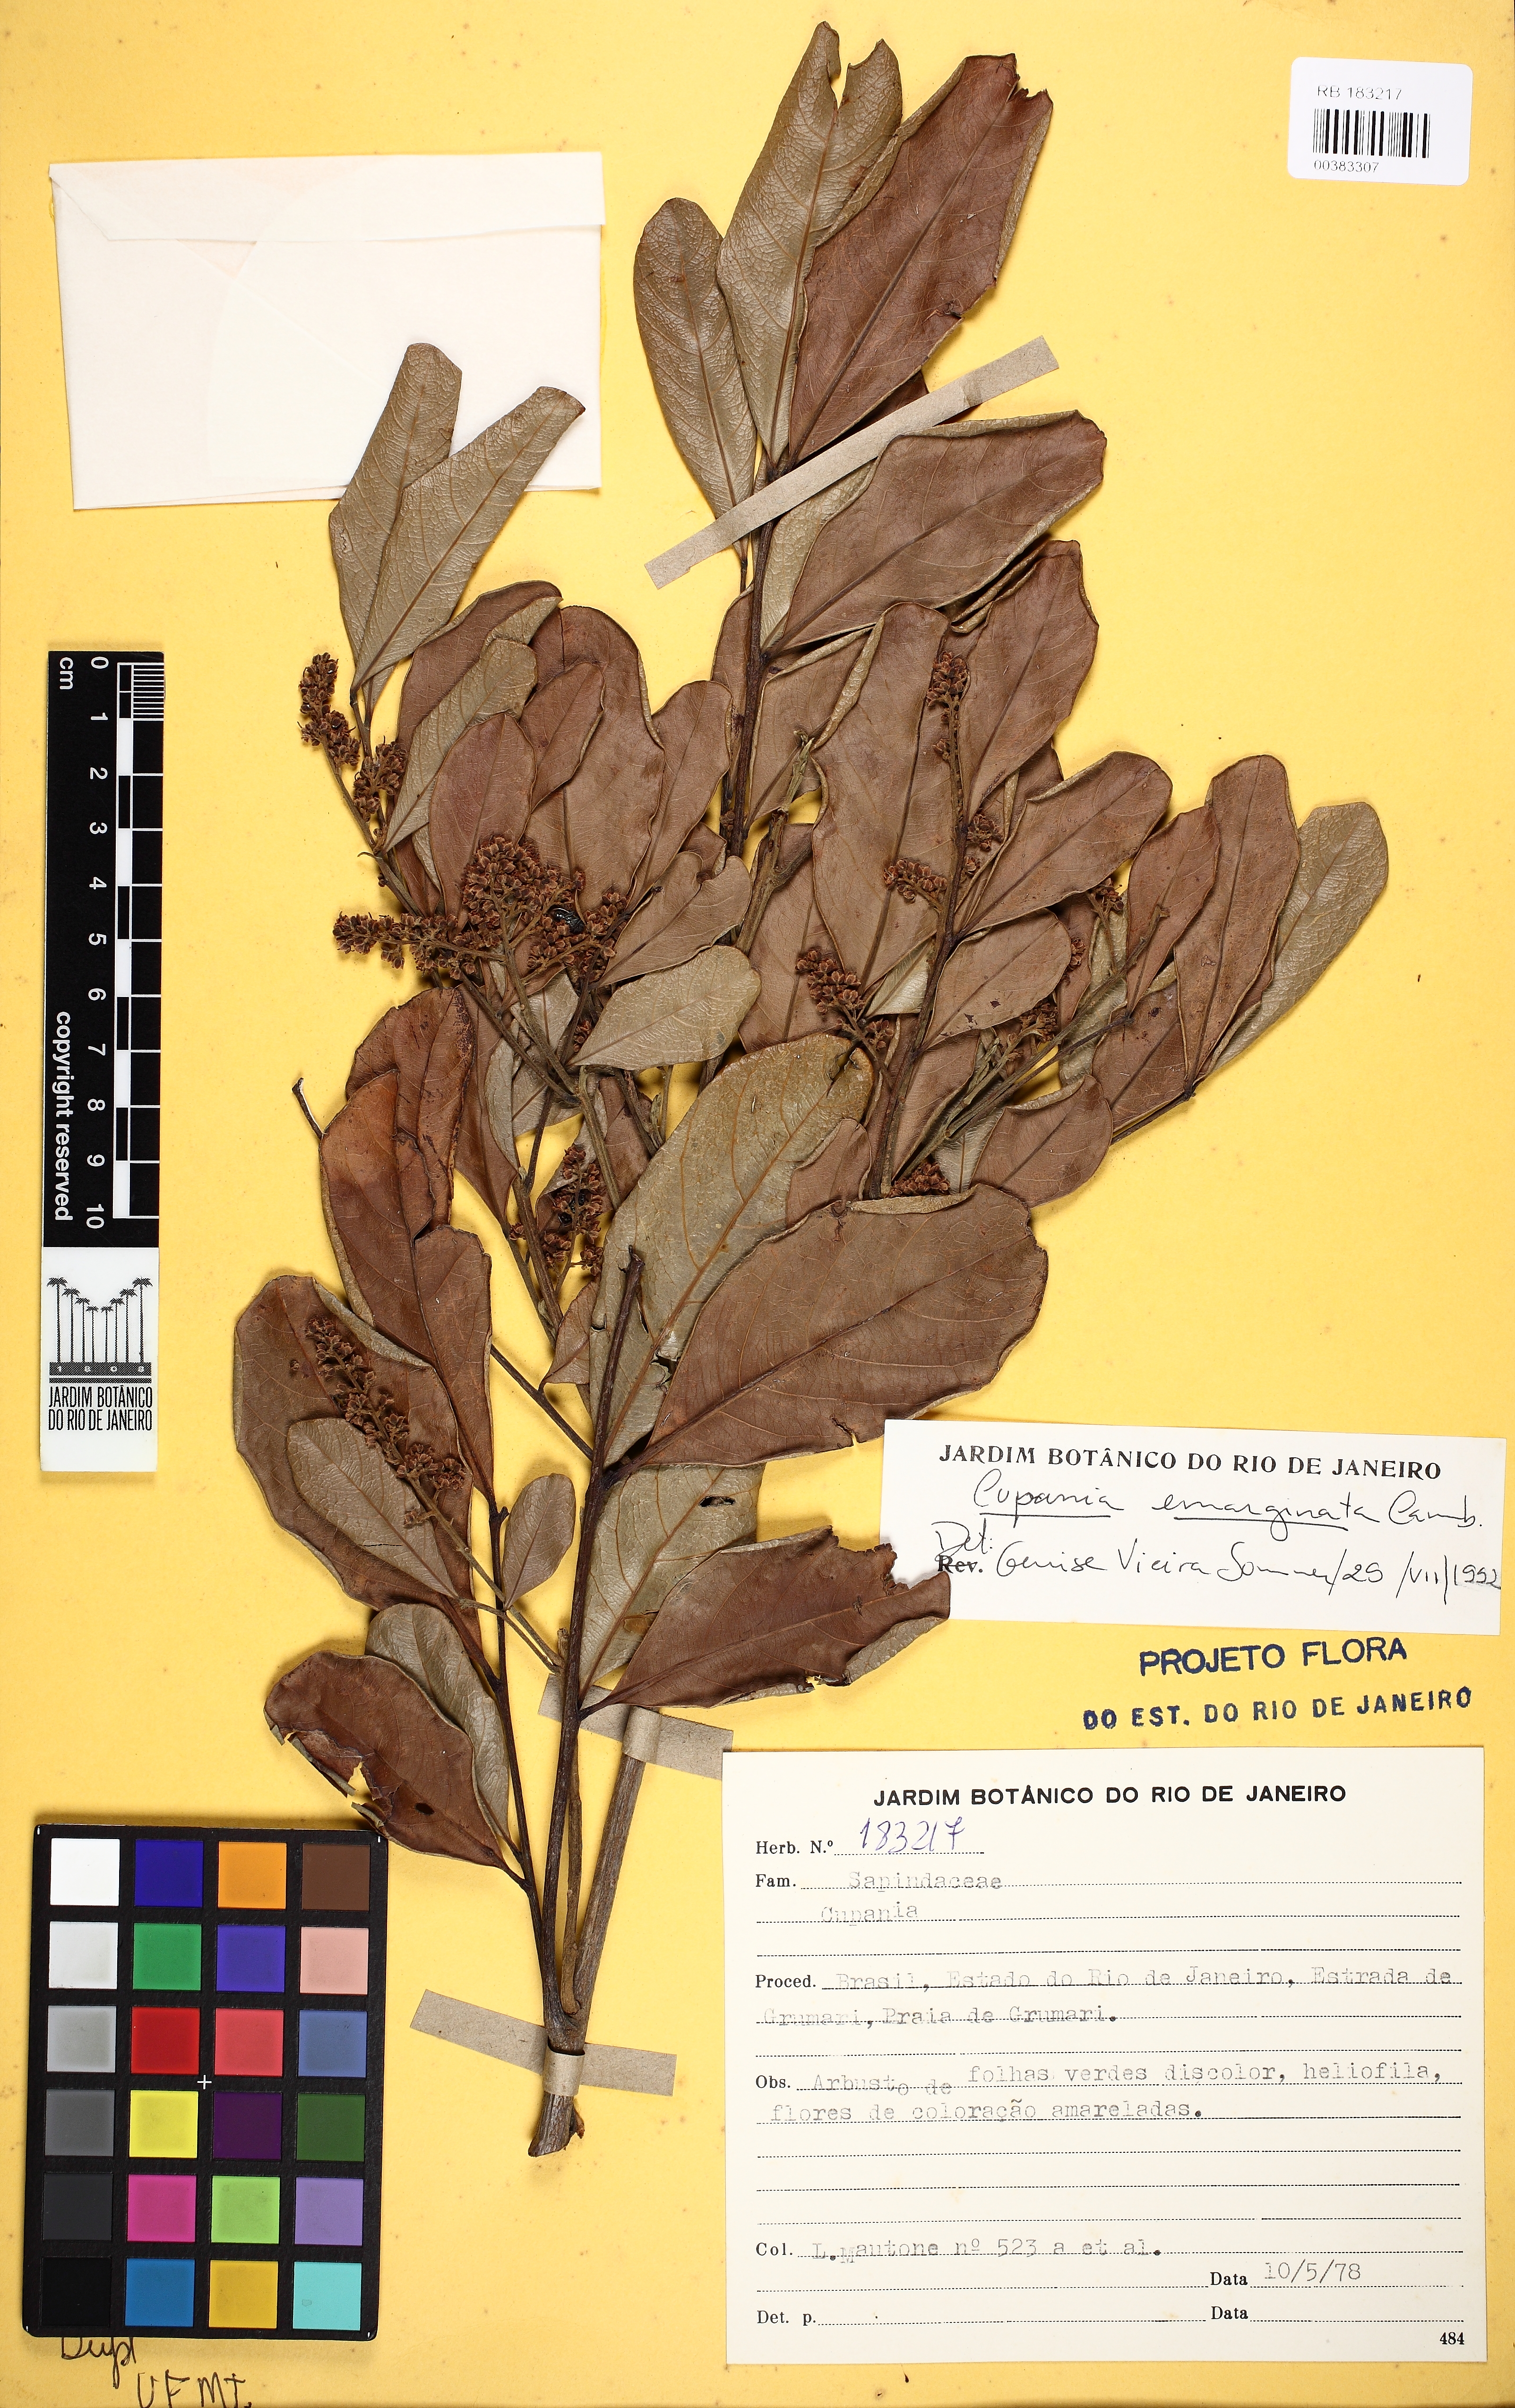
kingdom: Plantae
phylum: Tracheophyta
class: Magnoliopsida
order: Sapindales
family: Sapindaceae
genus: Cupania
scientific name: Cupania emarginata
